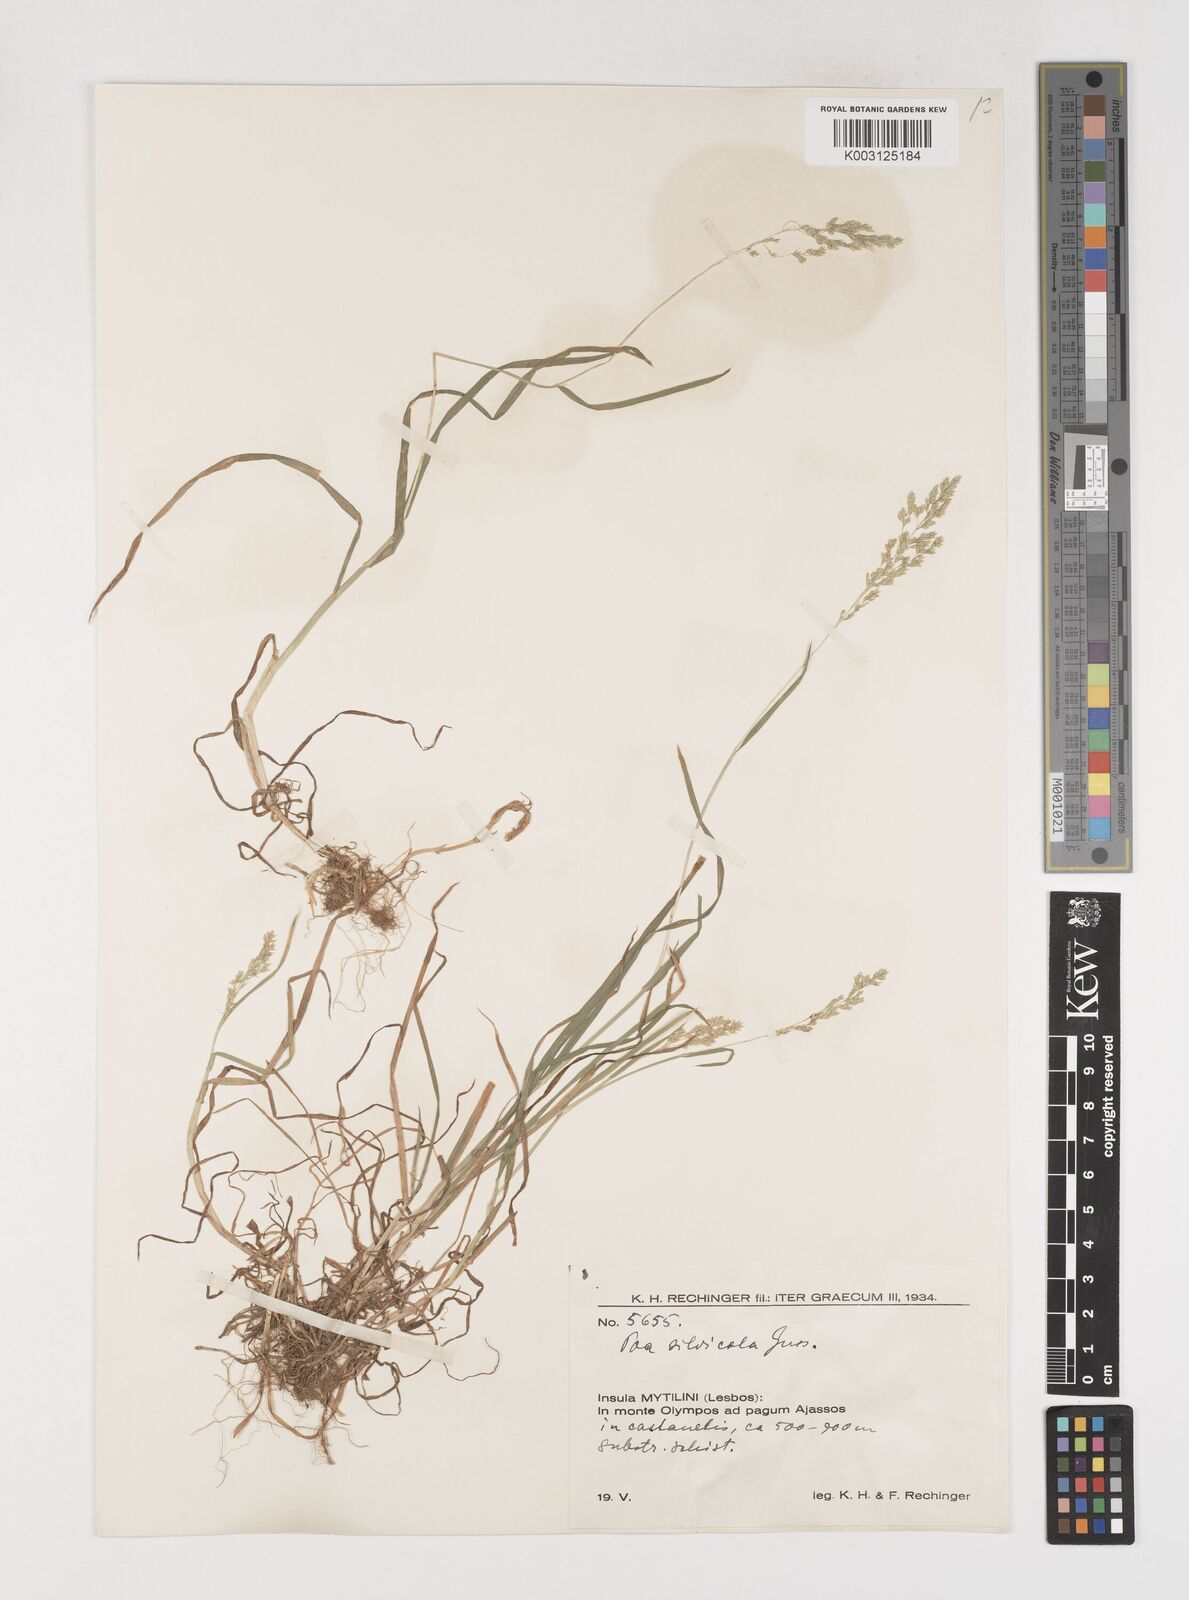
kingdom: Plantae
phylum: Tracheophyta
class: Liliopsida
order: Poales
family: Poaceae
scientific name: Poaceae
